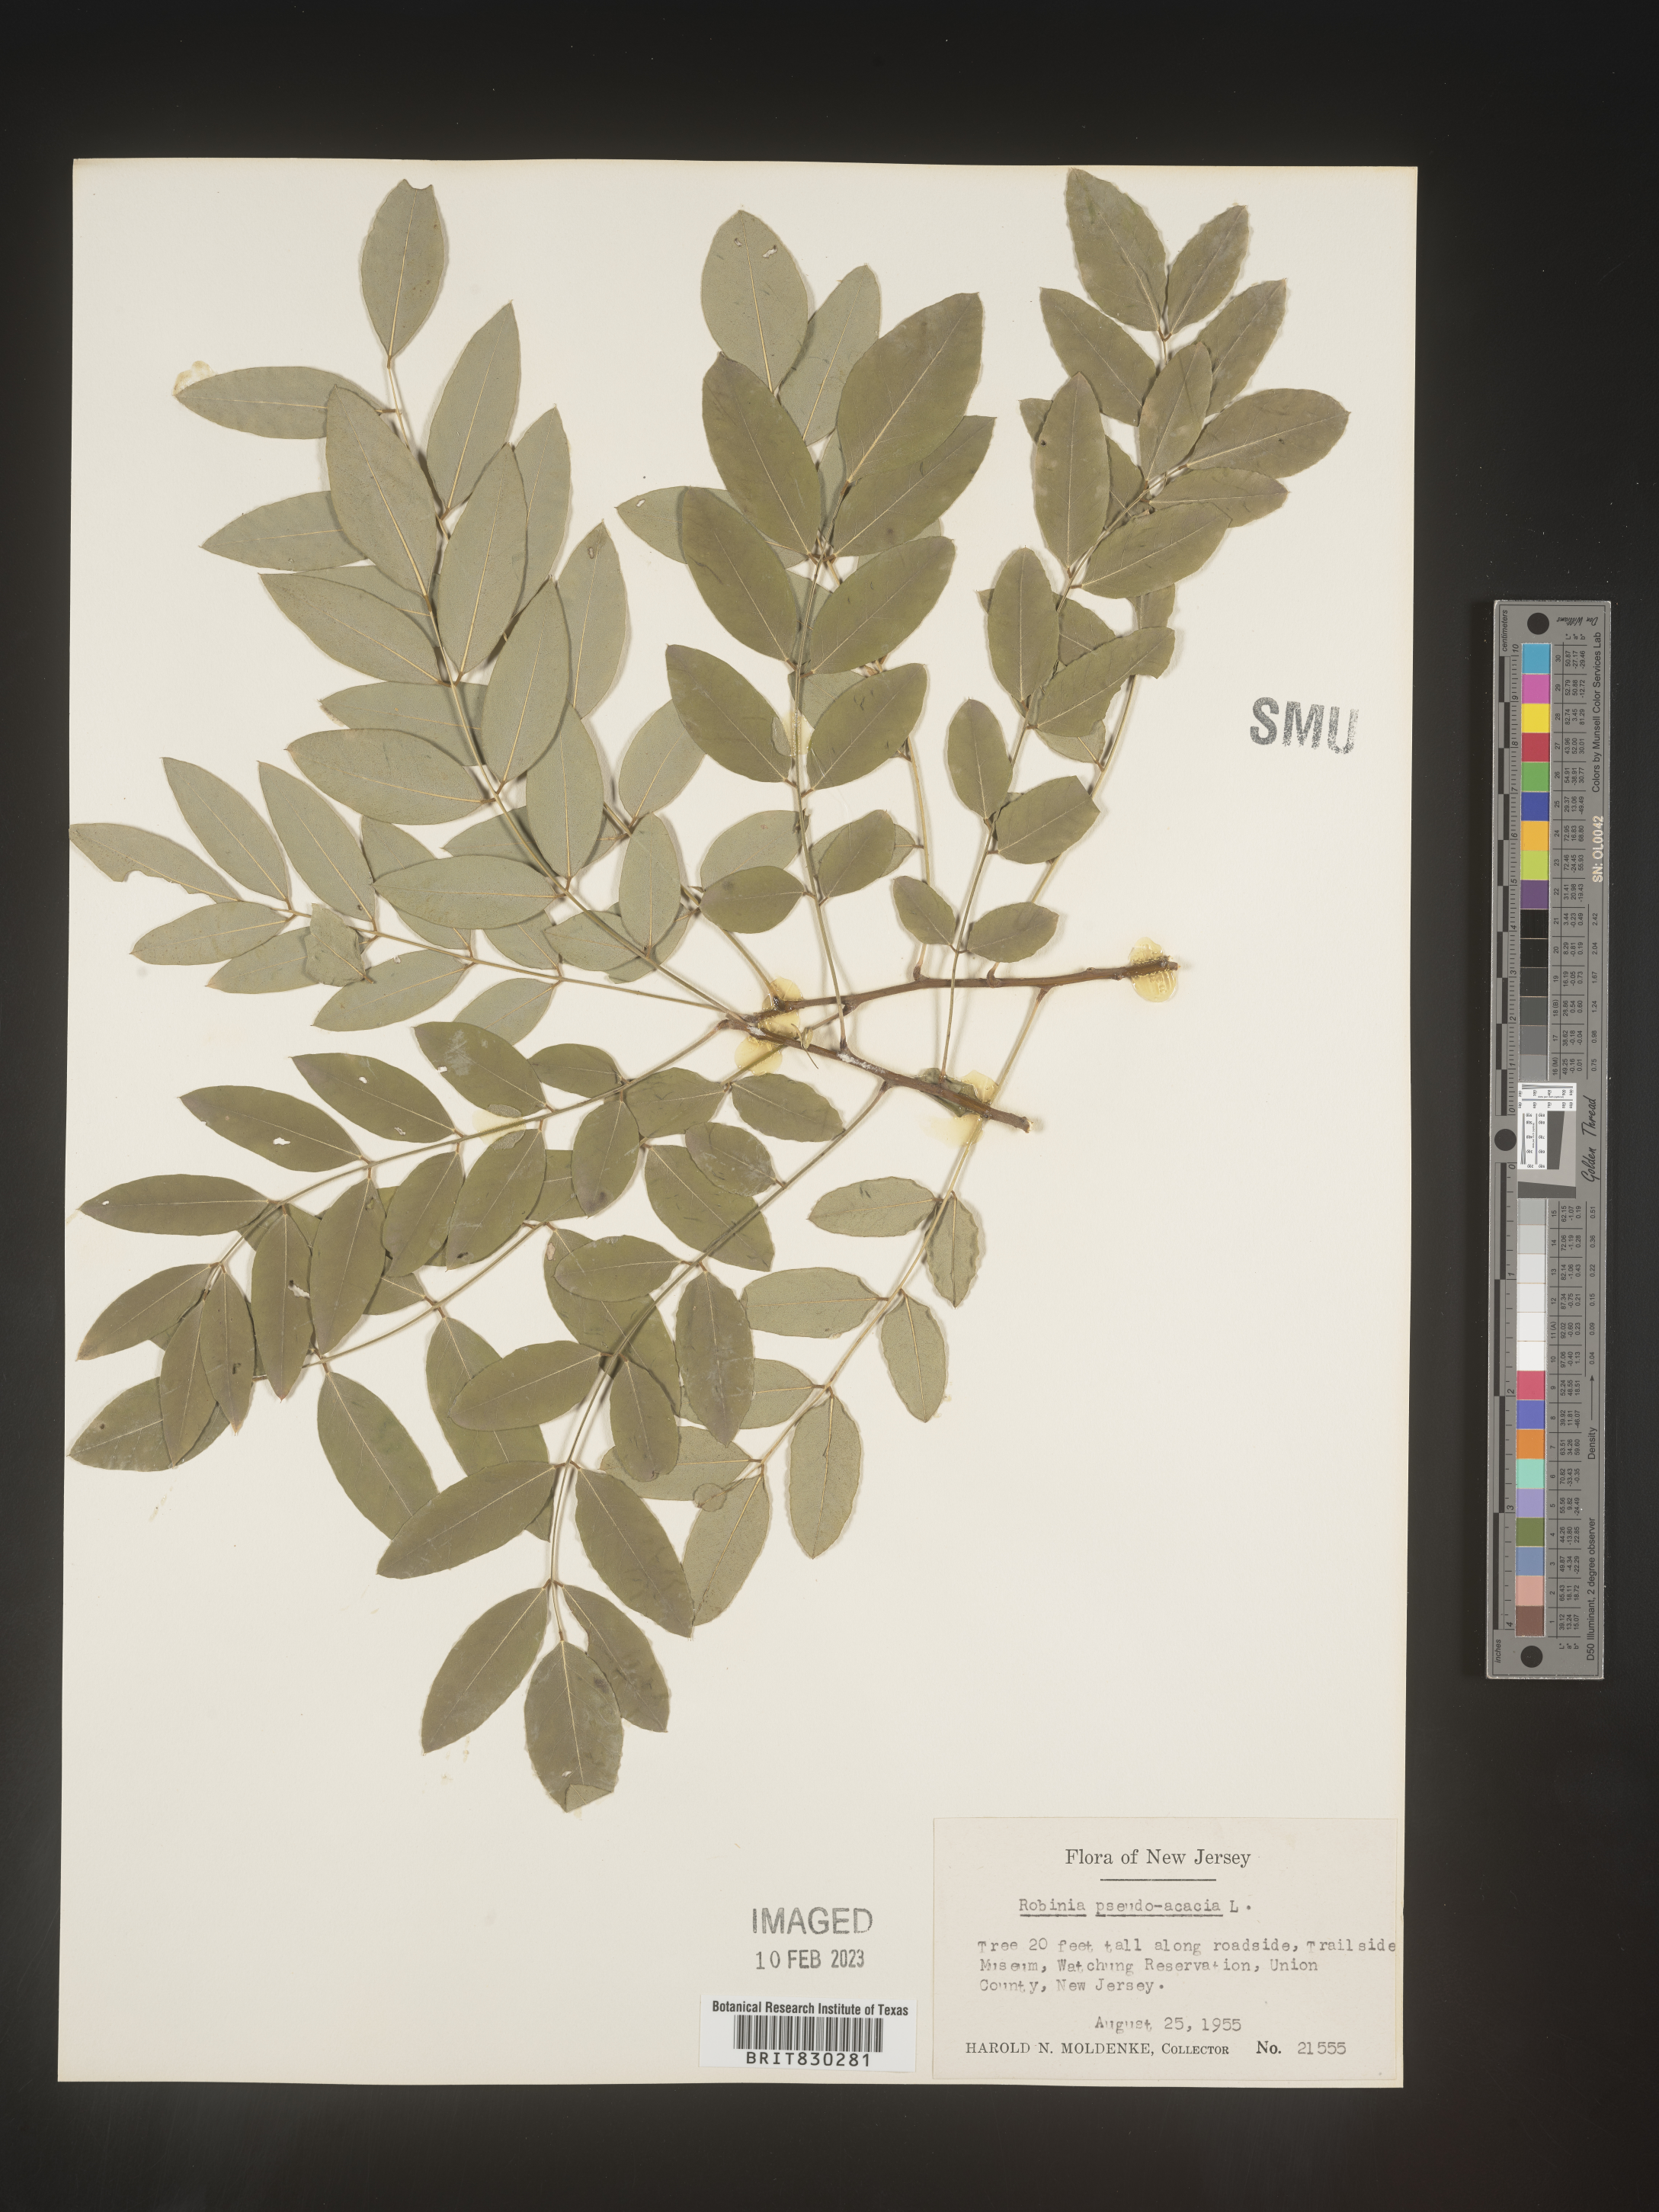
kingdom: Plantae
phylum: Tracheophyta
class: Magnoliopsida
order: Fabales
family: Fabaceae
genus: Robinia
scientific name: Robinia pseudoacacia
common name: Black locust
